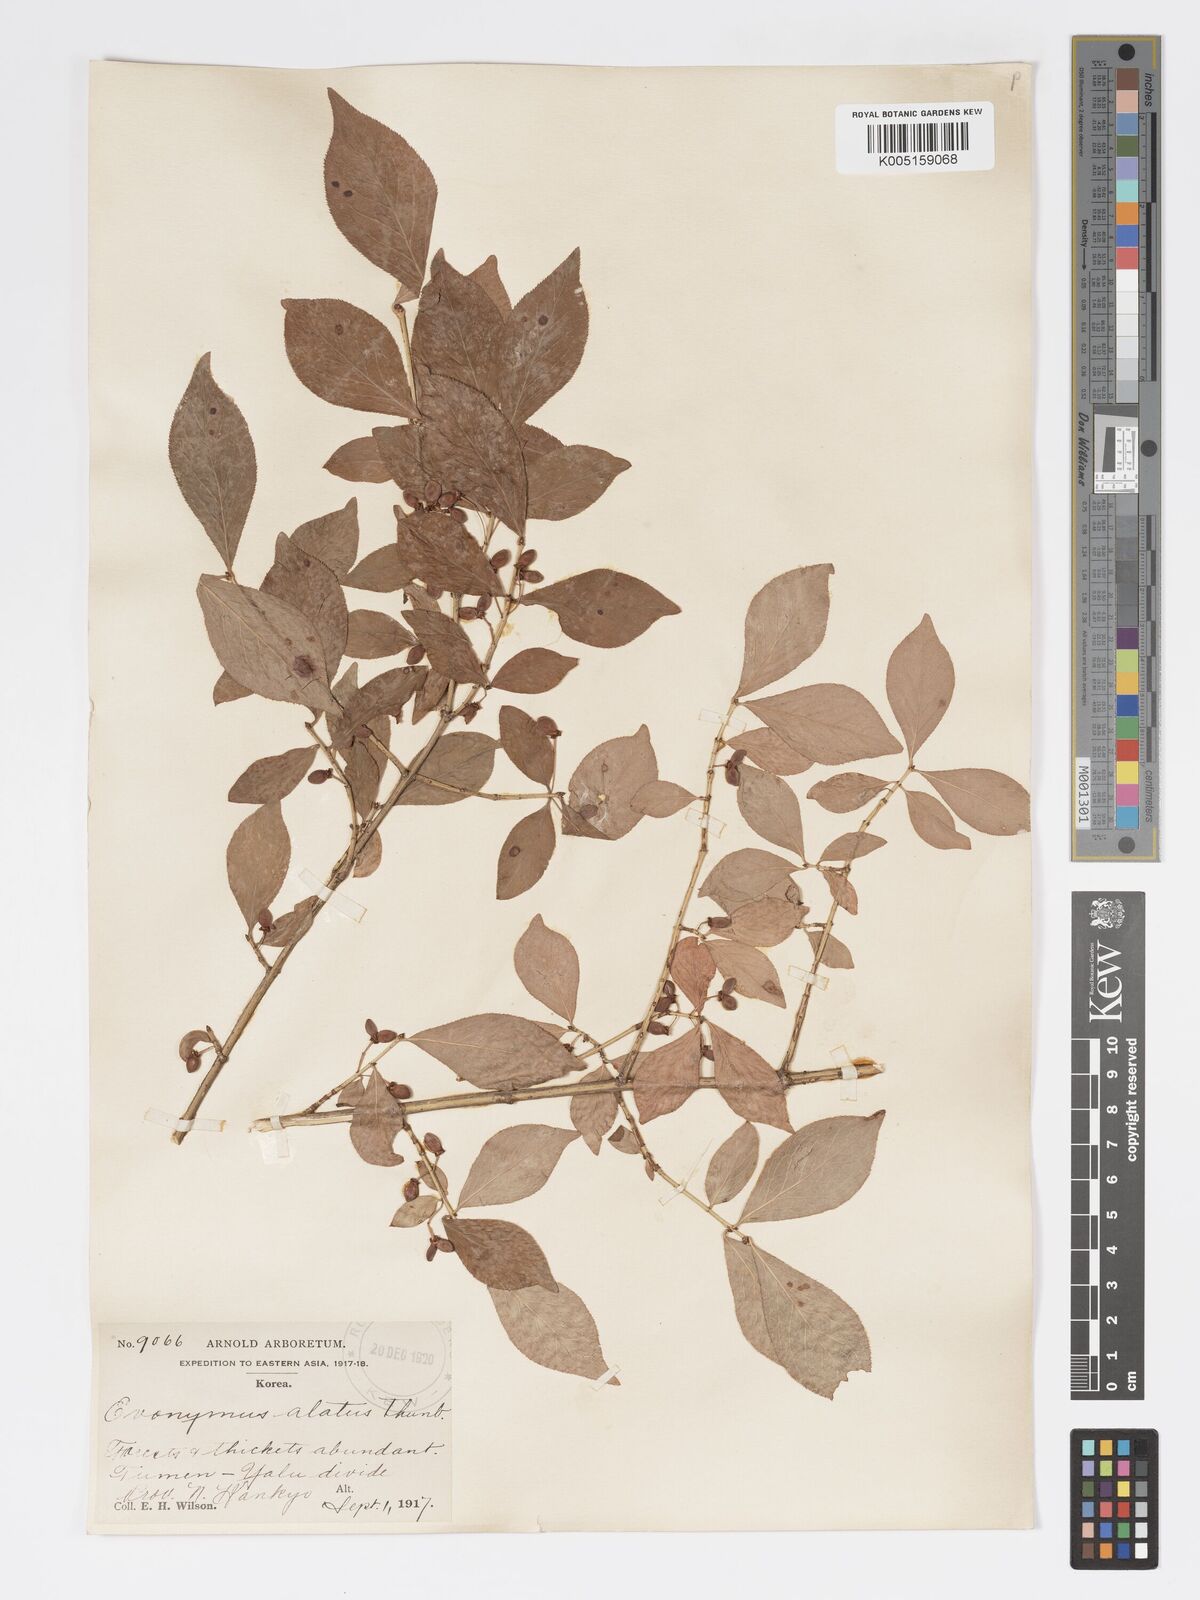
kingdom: Plantae
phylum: Tracheophyta
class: Magnoliopsida
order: Celastrales
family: Celastraceae
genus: Euonymus
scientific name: Euonymus
